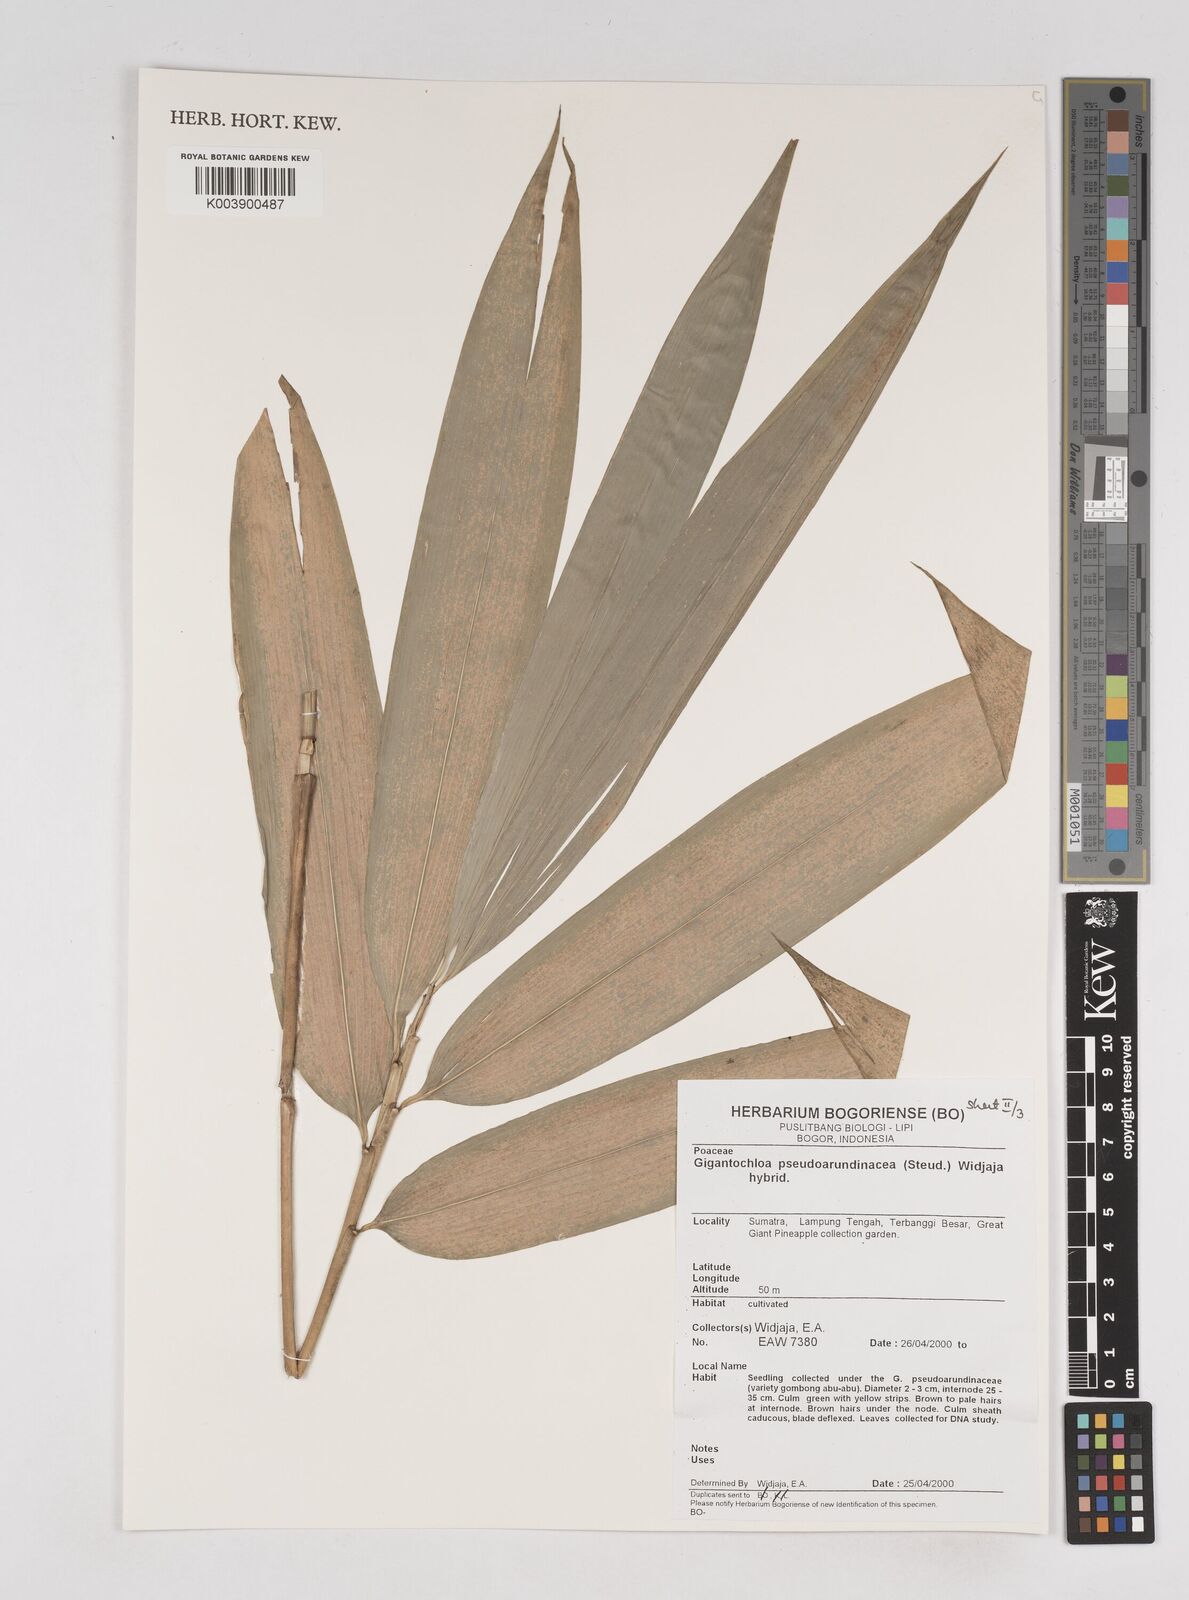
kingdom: Plantae
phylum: Tracheophyta
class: Liliopsida
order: Poales
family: Poaceae
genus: Gigantochloa
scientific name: Gigantochloa verticillata
